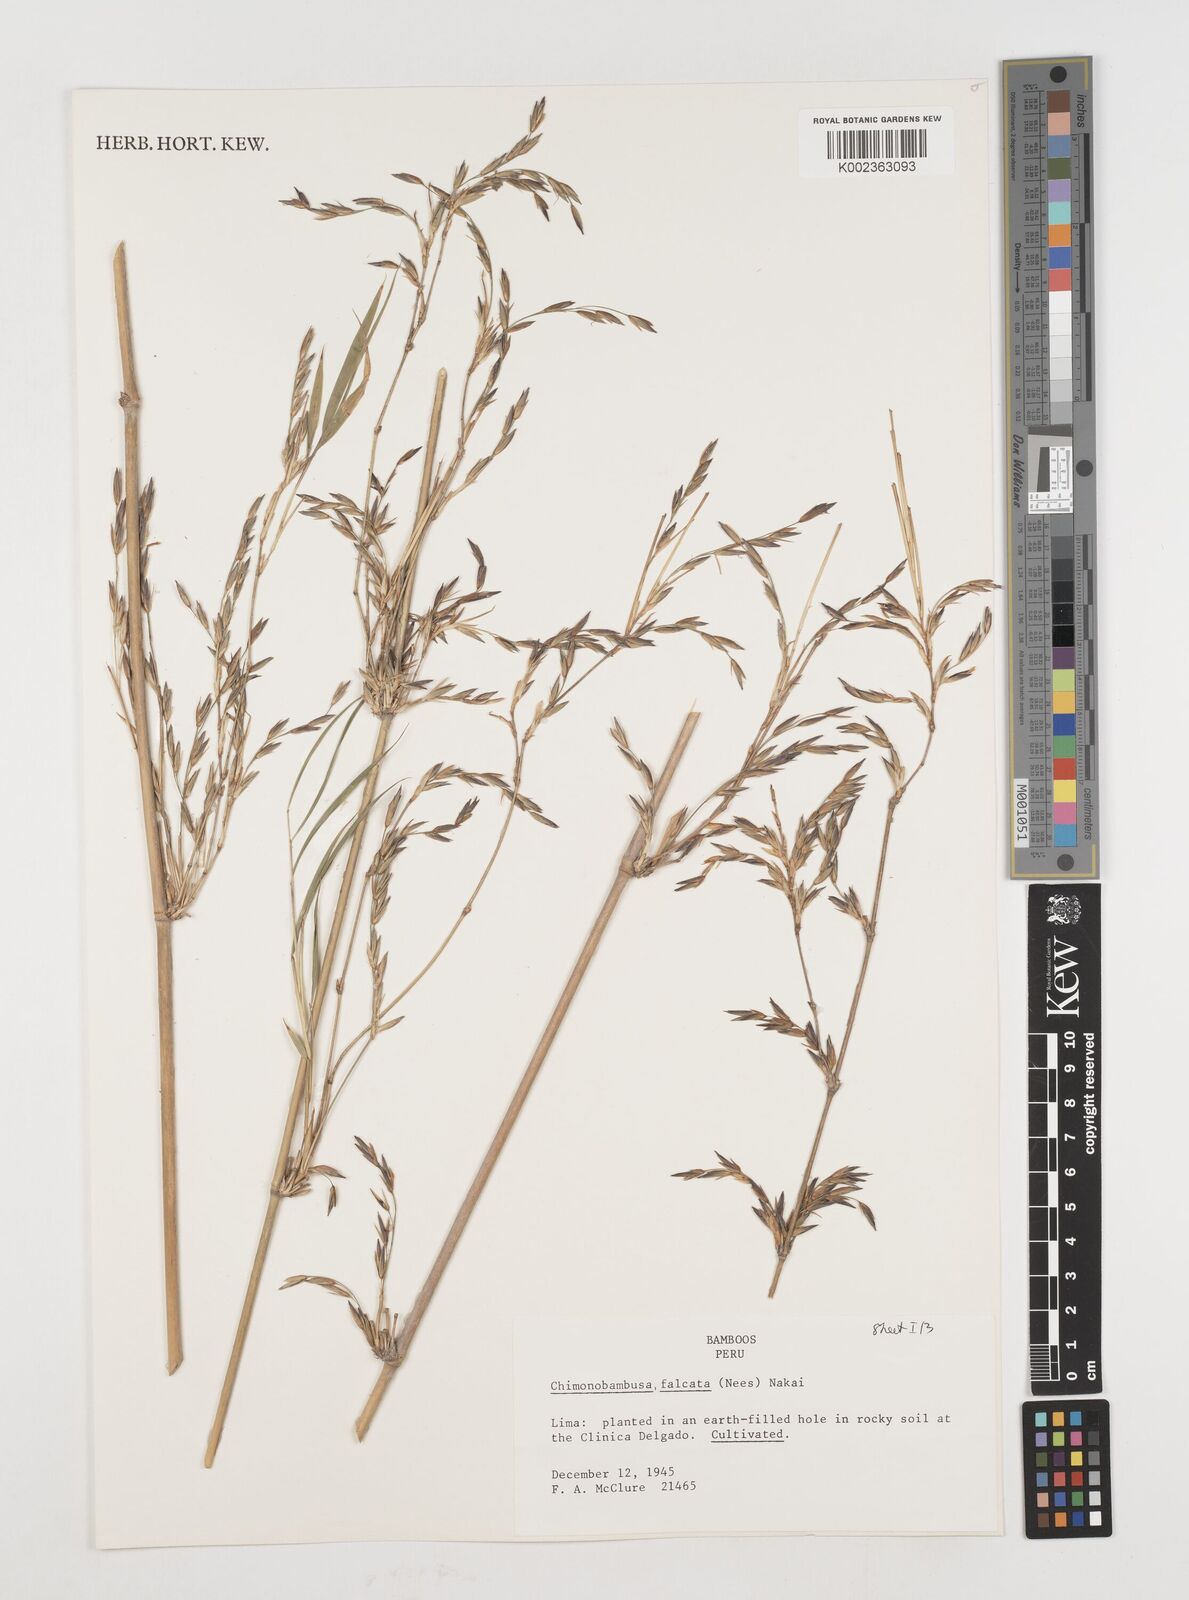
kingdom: Plantae
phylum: Tracheophyta
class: Liliopsida
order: Poales
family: Poaceae
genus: Drepanostachyum
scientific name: Drepanostachyum
